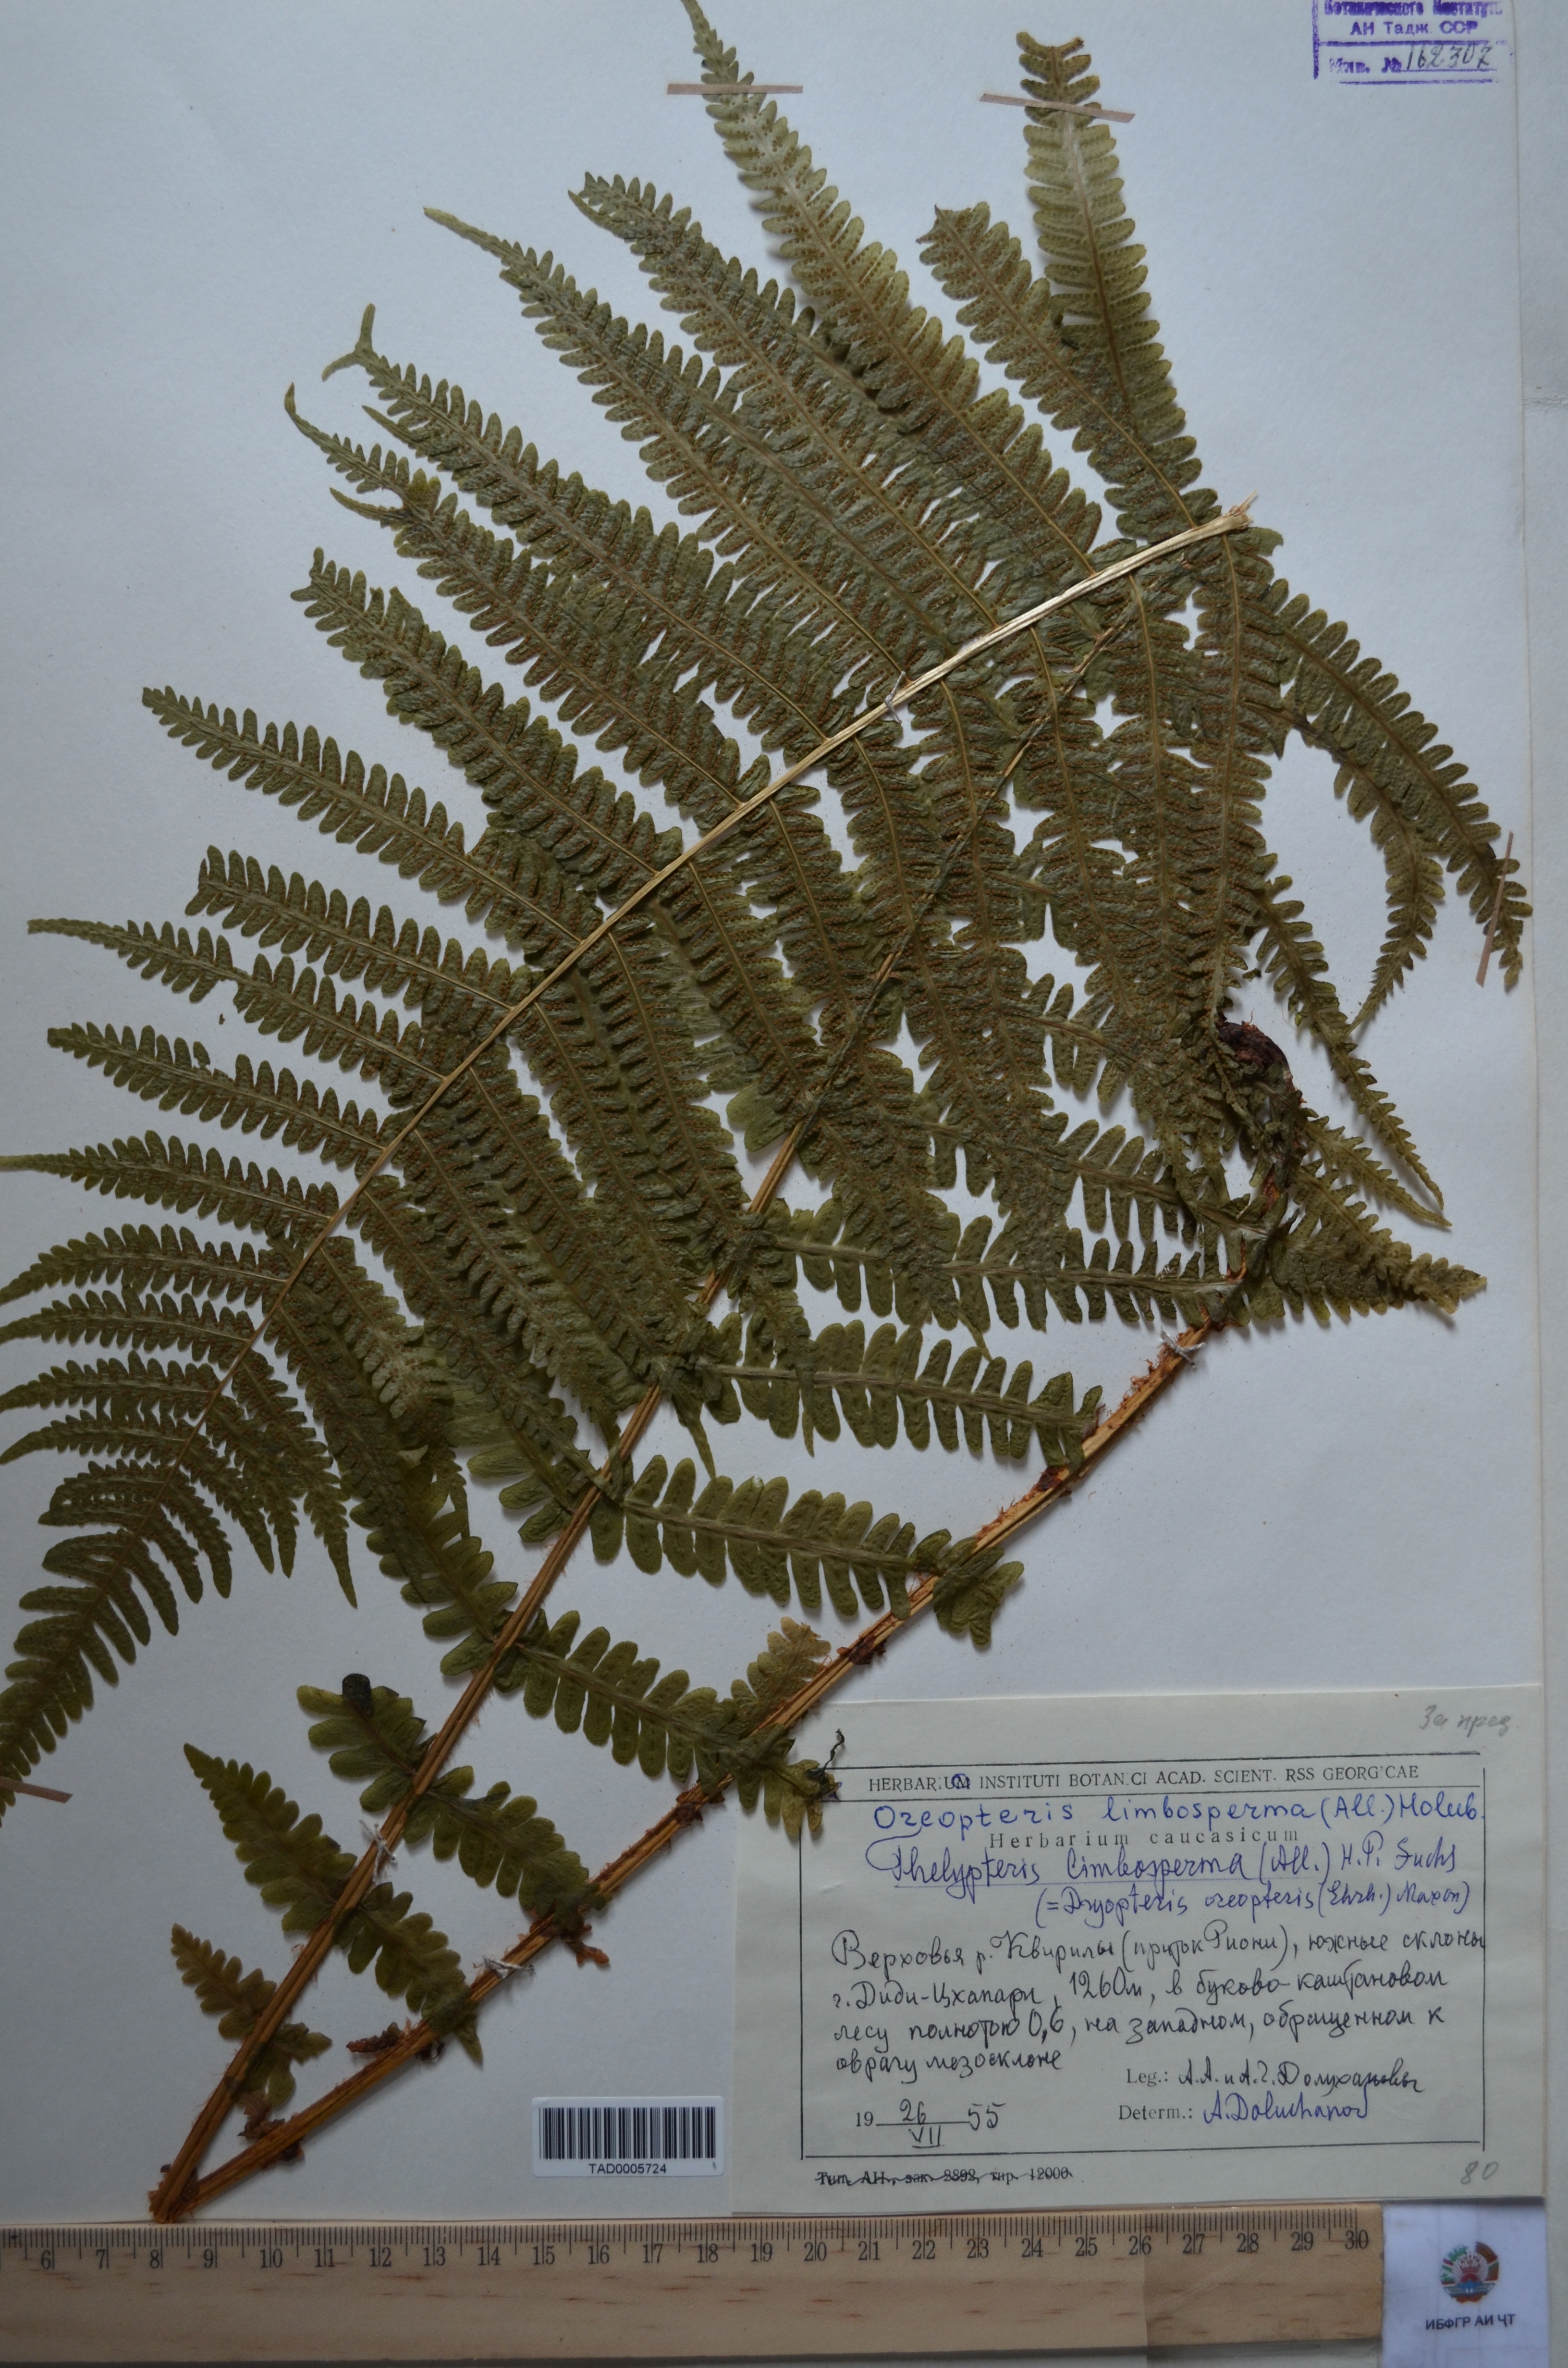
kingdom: Plantae
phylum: Tracheophyta
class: Polypodiopsida
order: Polypodiales
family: Thelypteridaceae
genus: Oreopteris
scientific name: Oreopteris limbosperma
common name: Lemon-scented fern
